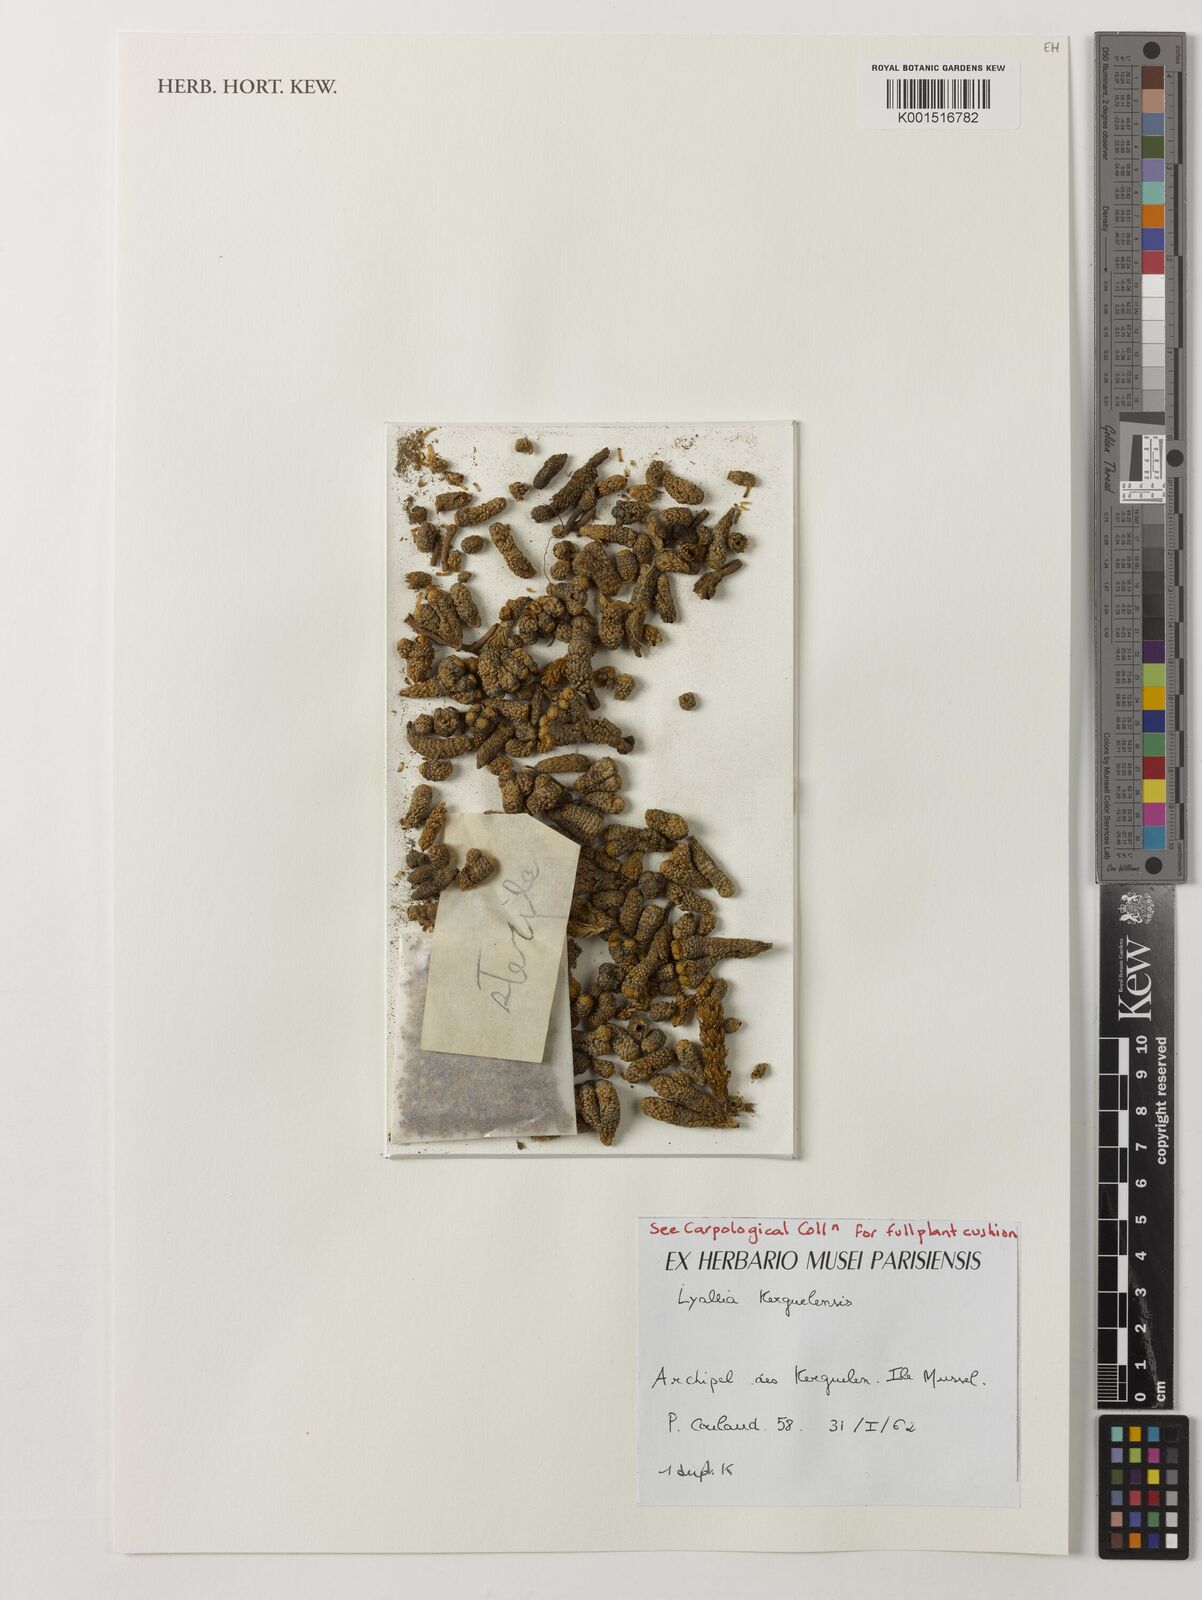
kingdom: Plantae
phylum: Tracheophyta
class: Magnoliopsida
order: Caryophyllales
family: Montiaceae
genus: Lyallia
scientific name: Lyallia kerguelensis
